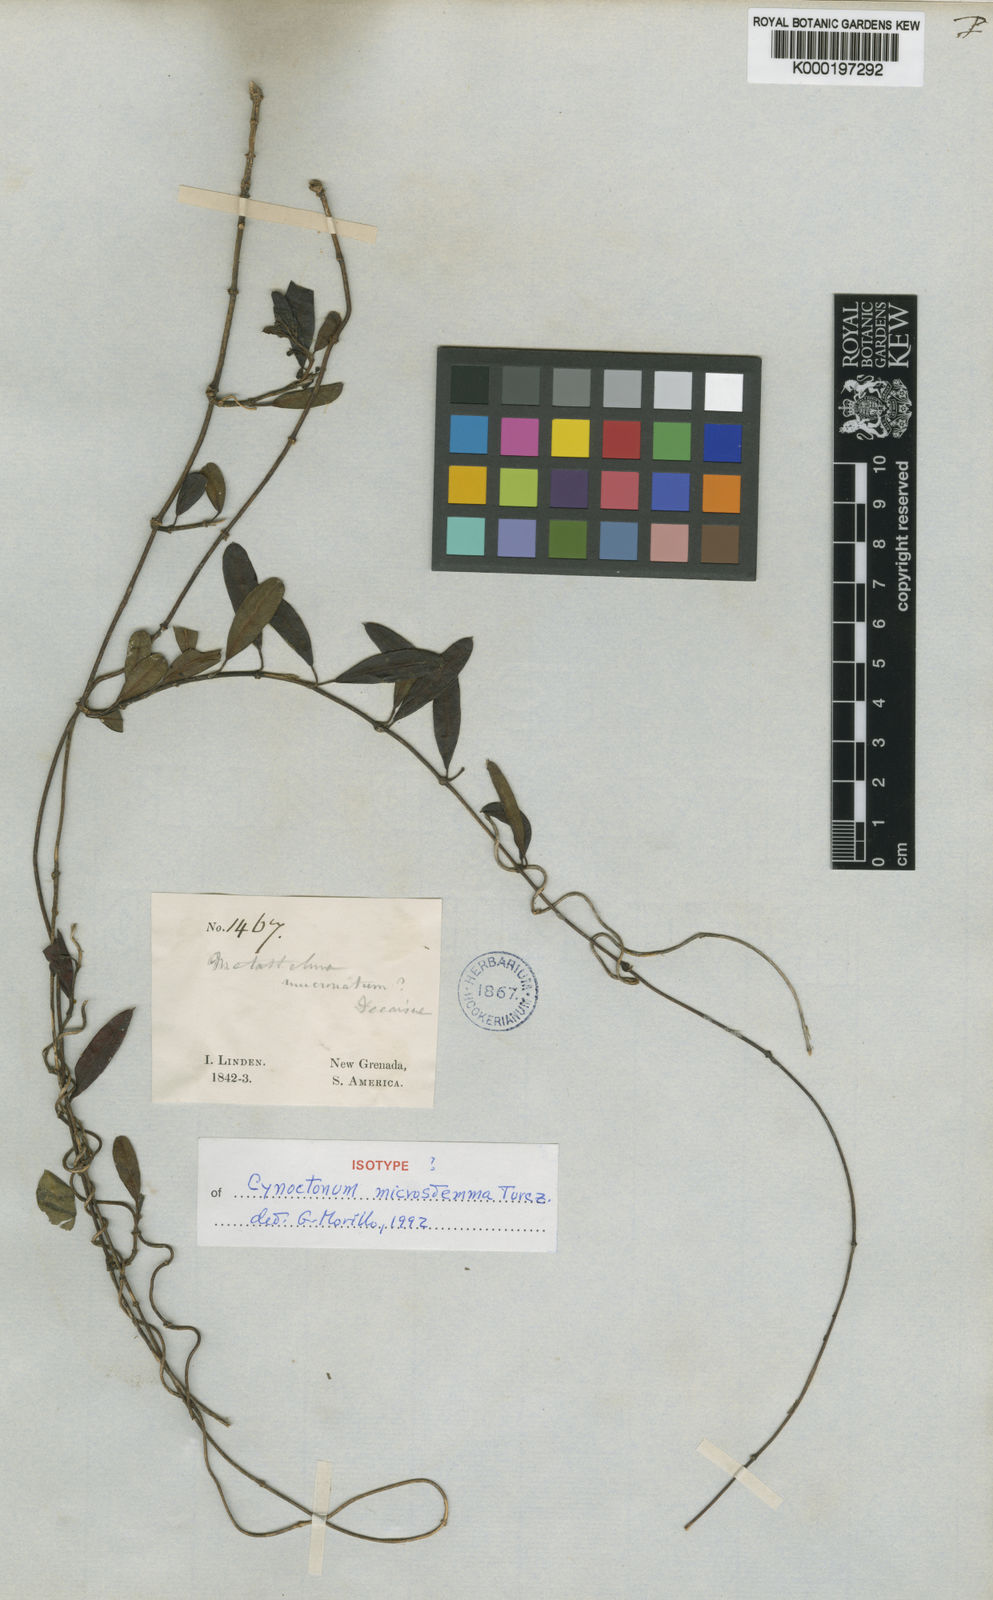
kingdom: Plantae
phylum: Tracheophyta
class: Magnoliopsida
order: Gentianales
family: Apocynaceae
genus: Cynanchum
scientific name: Cynanchum microstemma
